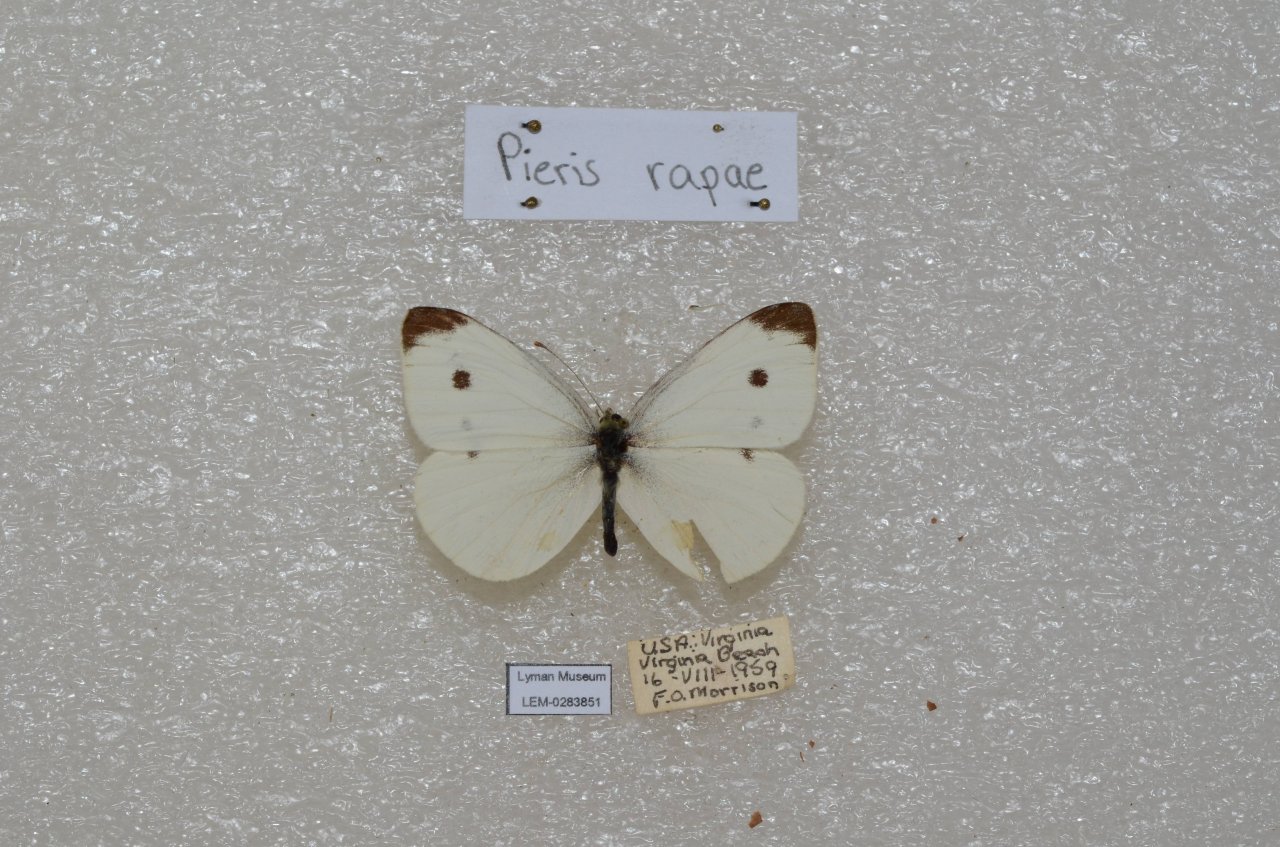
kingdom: Animalia
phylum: Arthropoda
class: Insecta
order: Lepidoptera
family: Pieridae
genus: Pieris
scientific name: Pieris rapae
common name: Cabbage White
